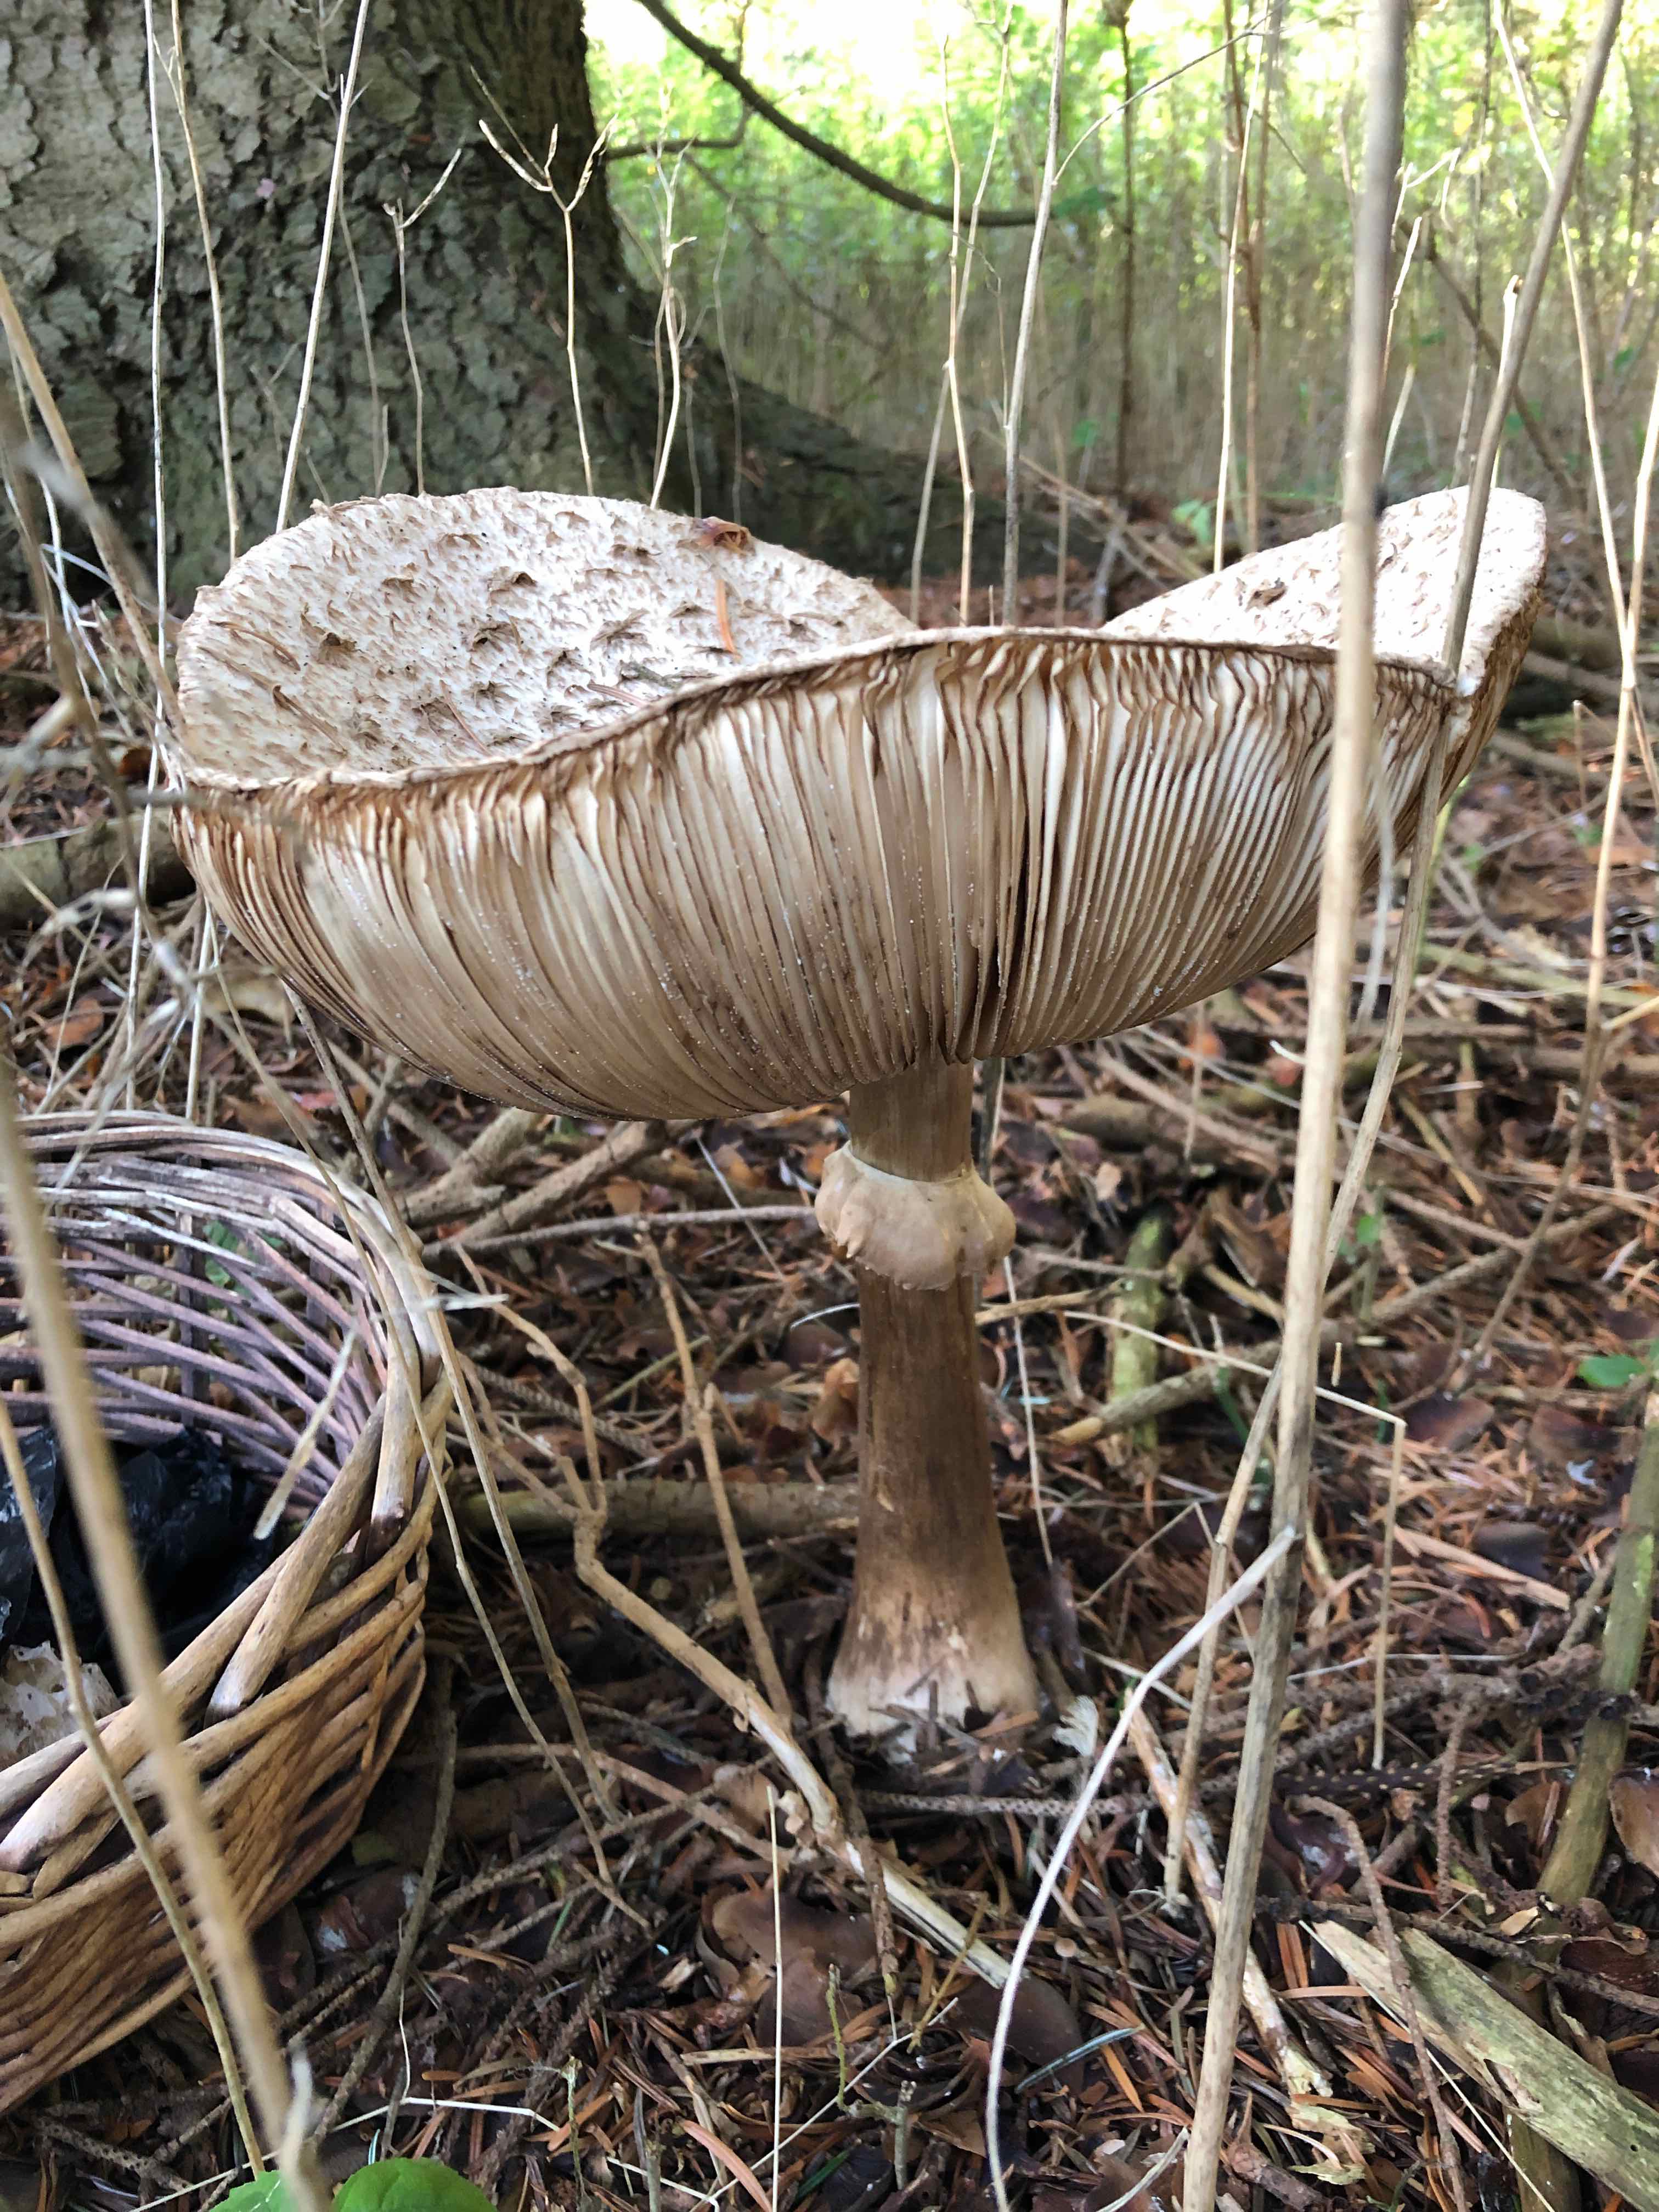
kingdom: Fungi
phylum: Basidiomycota
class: Agaricomycetes
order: Agaricales
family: Agaricaceae
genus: Chlorophyllum
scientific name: Chlorophyllum
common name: rabarberhat
